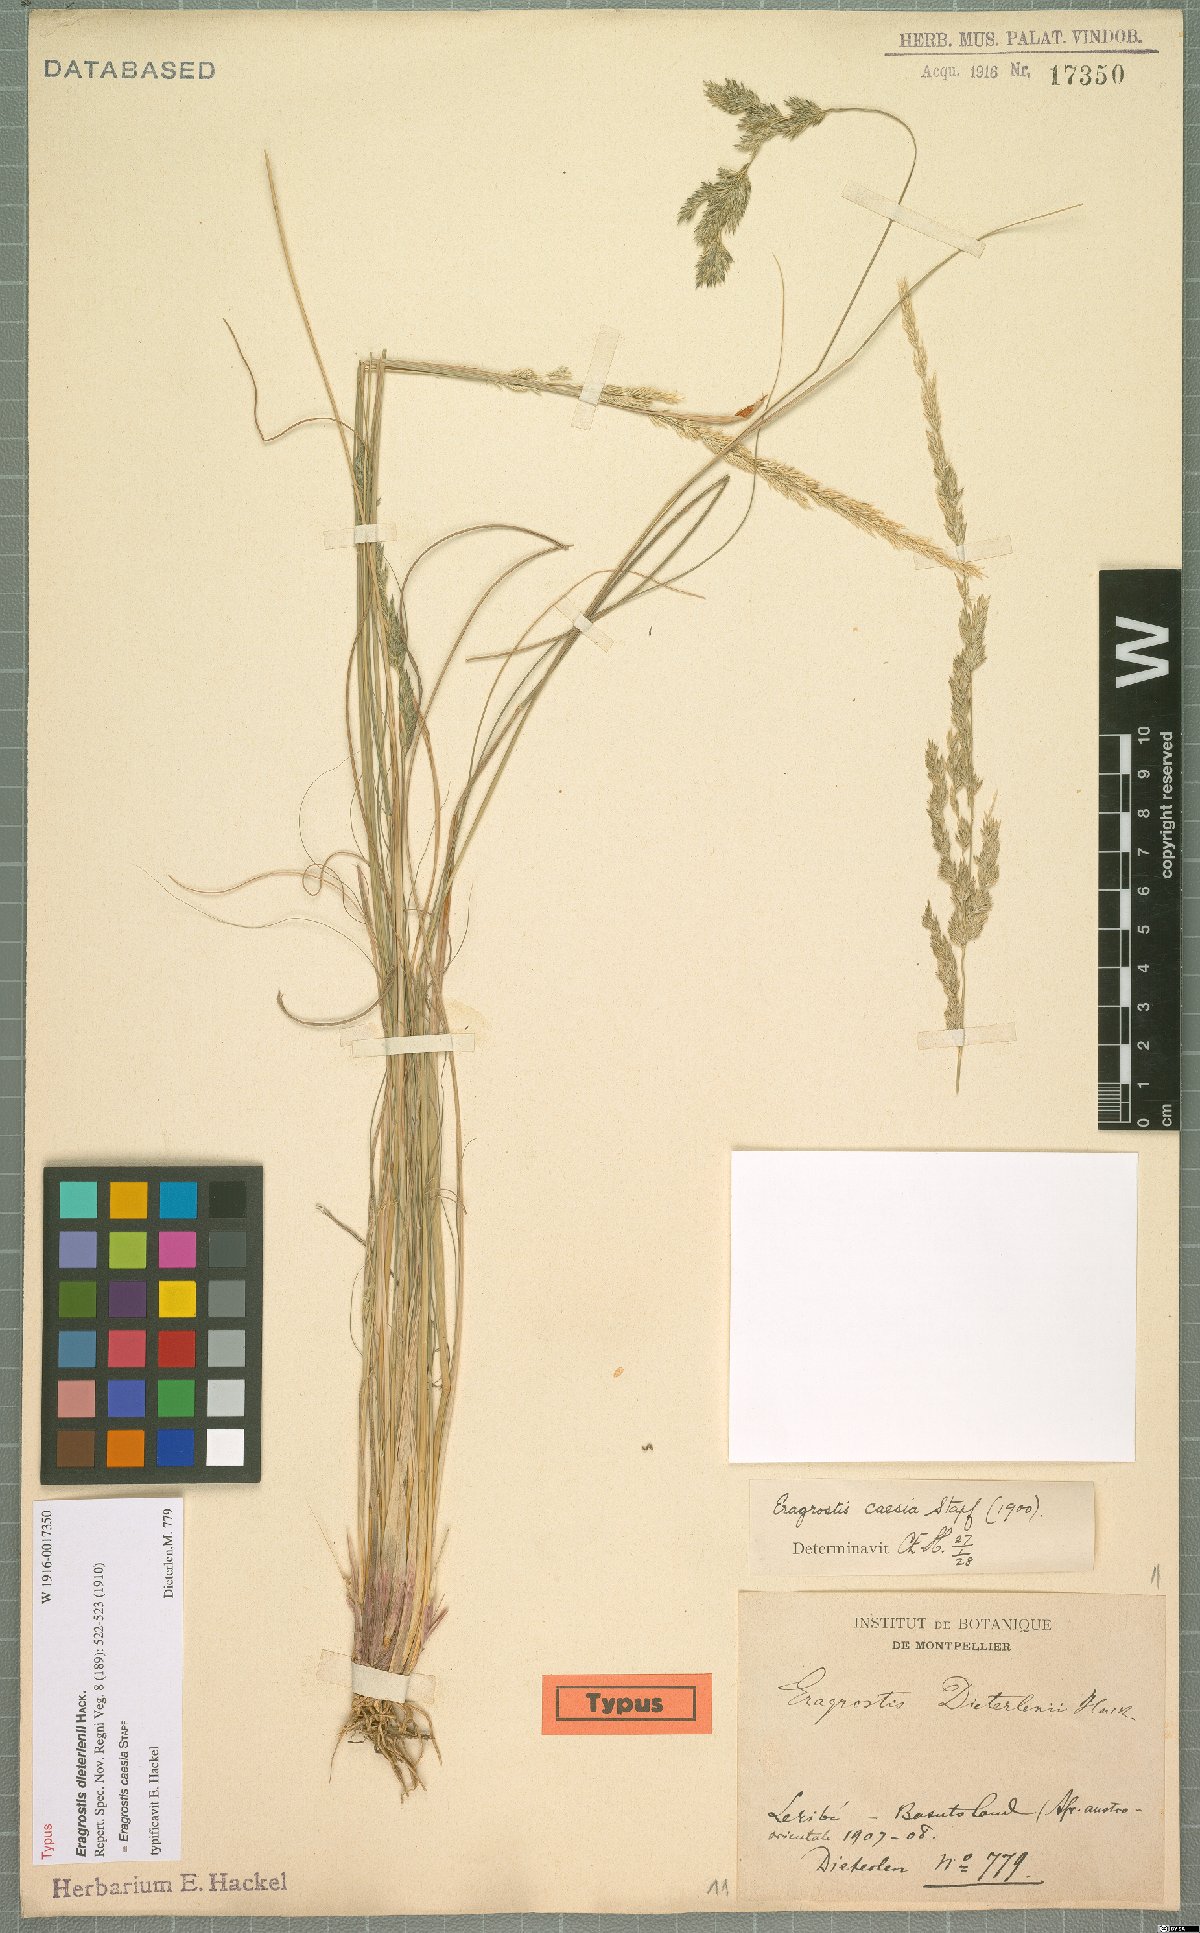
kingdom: Plantae
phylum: Tracheophyta
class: Liliopsida
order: Poales
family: Poaceae
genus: Eragrostis
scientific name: Eragrostis caesia
